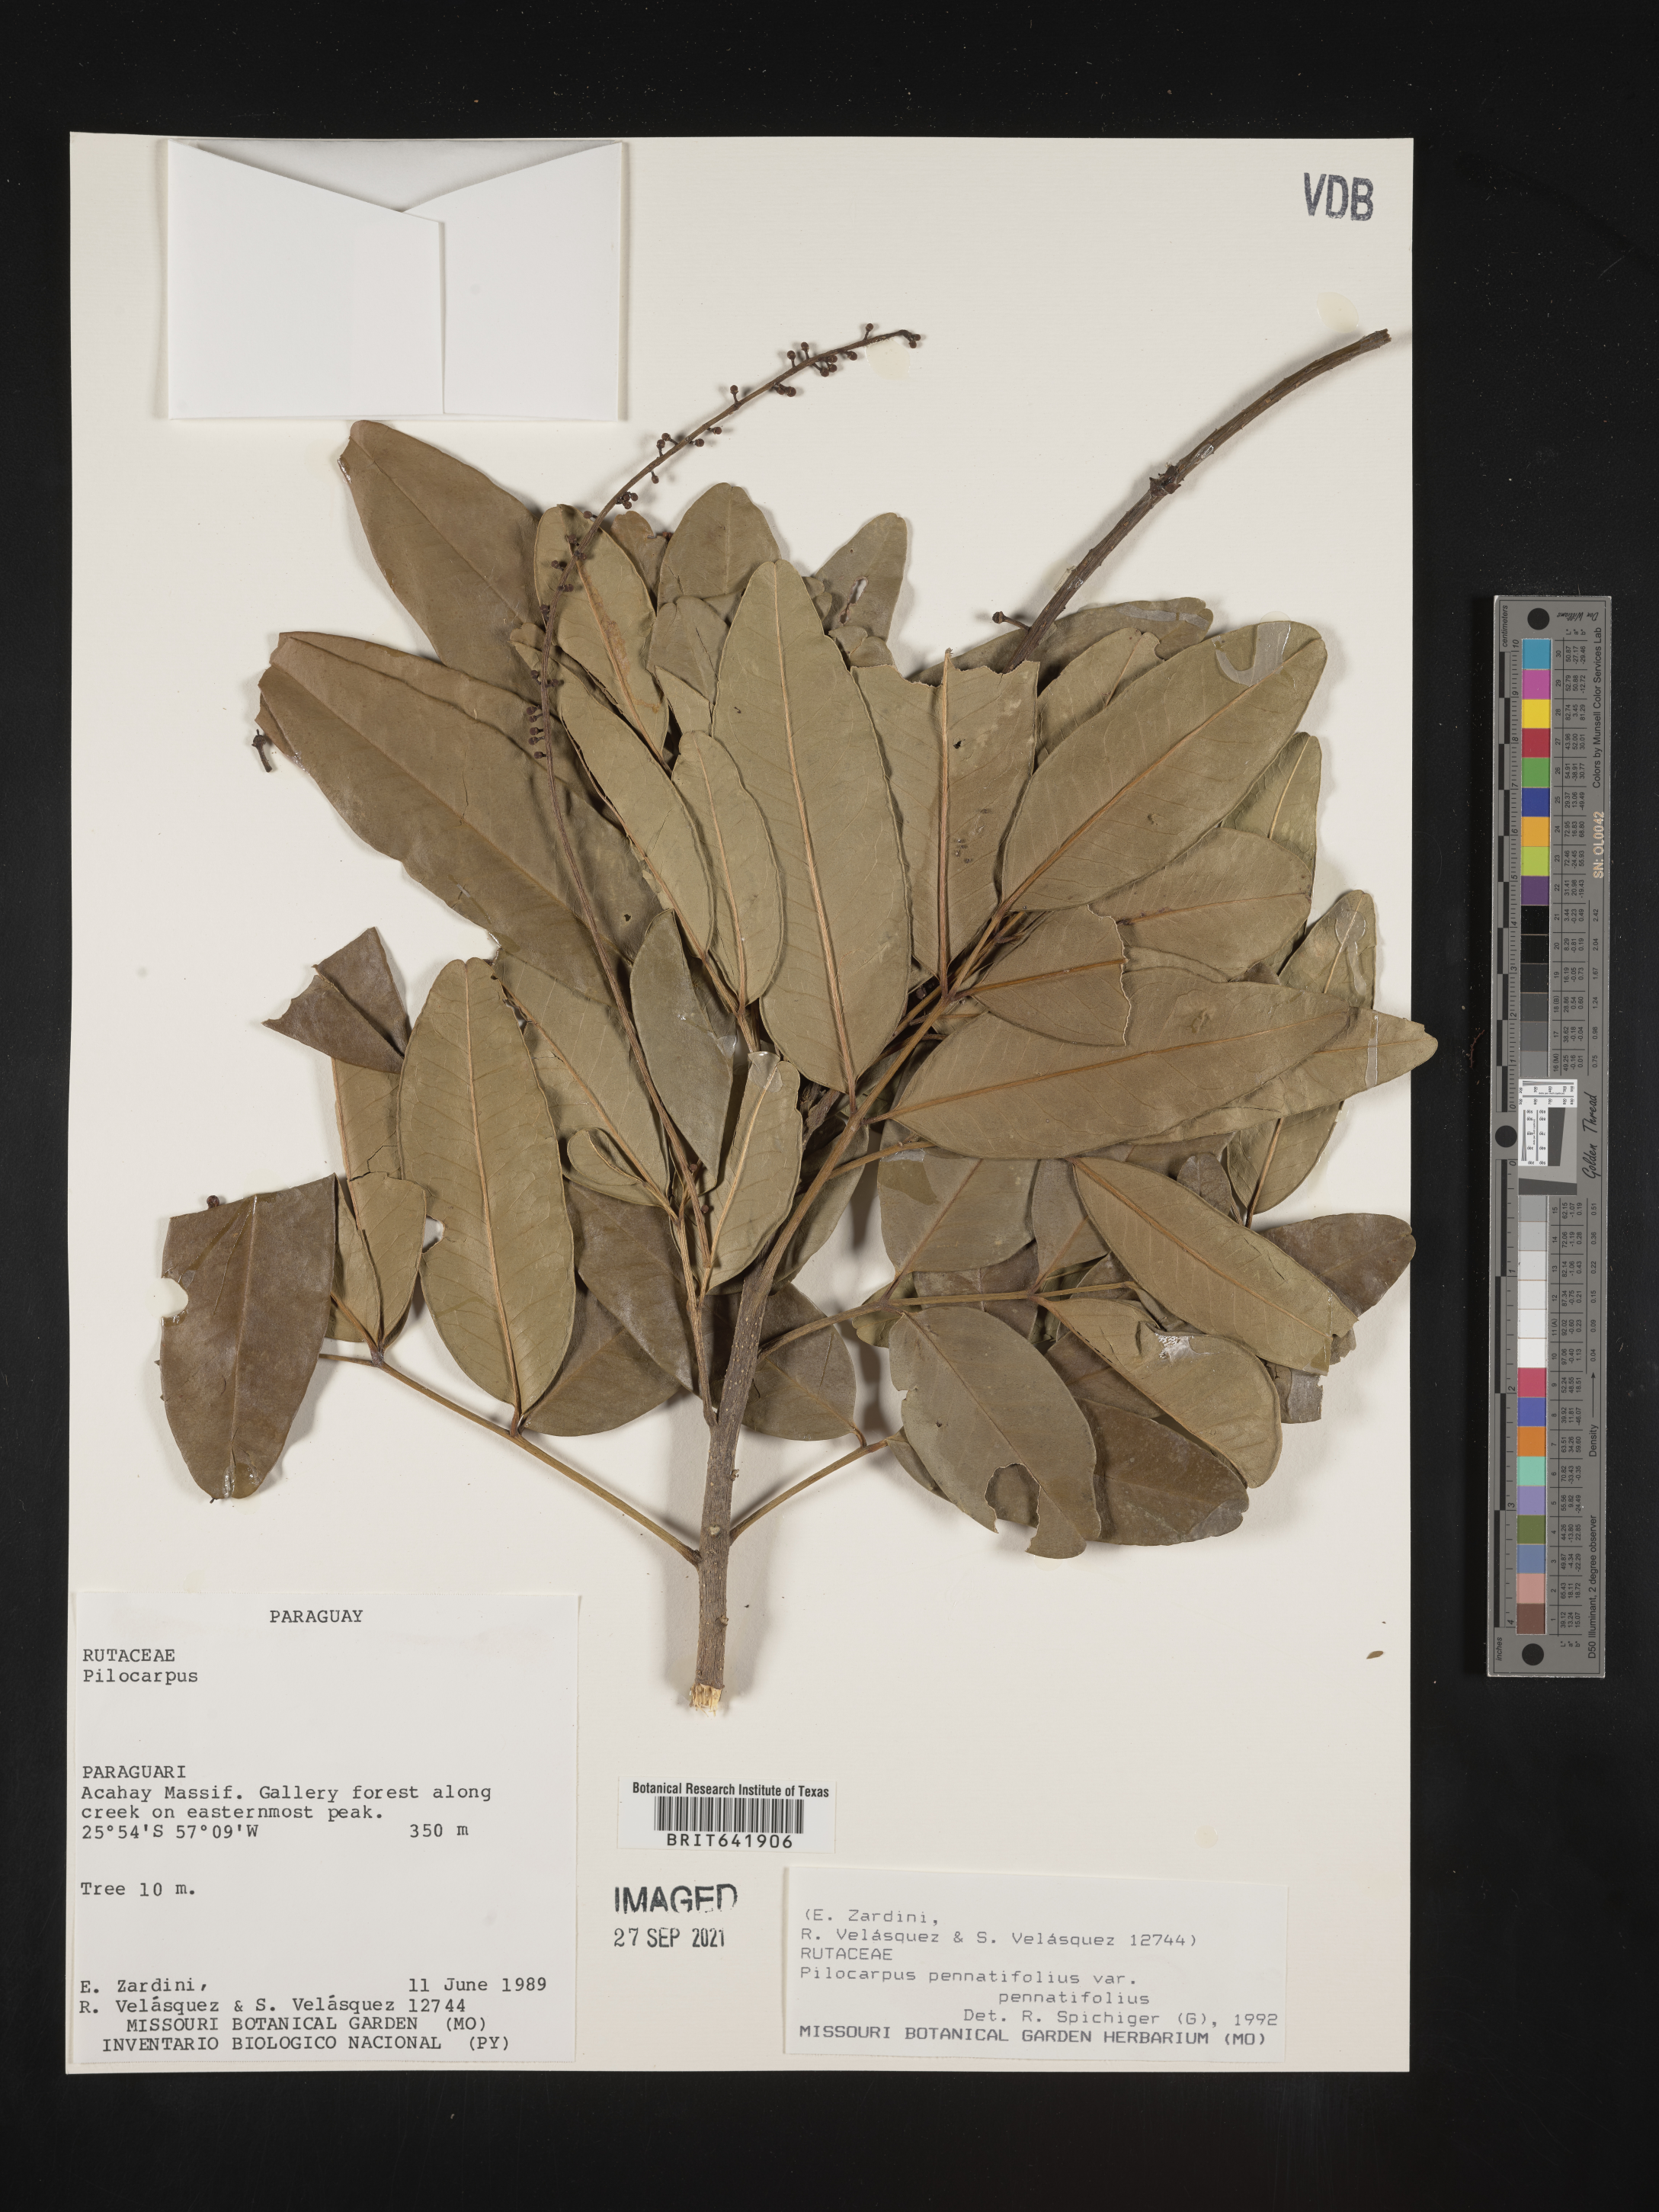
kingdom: Plantae
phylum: Tracheophyta
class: Magnoliopsida
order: Sapindales
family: Rutaceae
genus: Pilocarpus
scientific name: Pilocarpus
